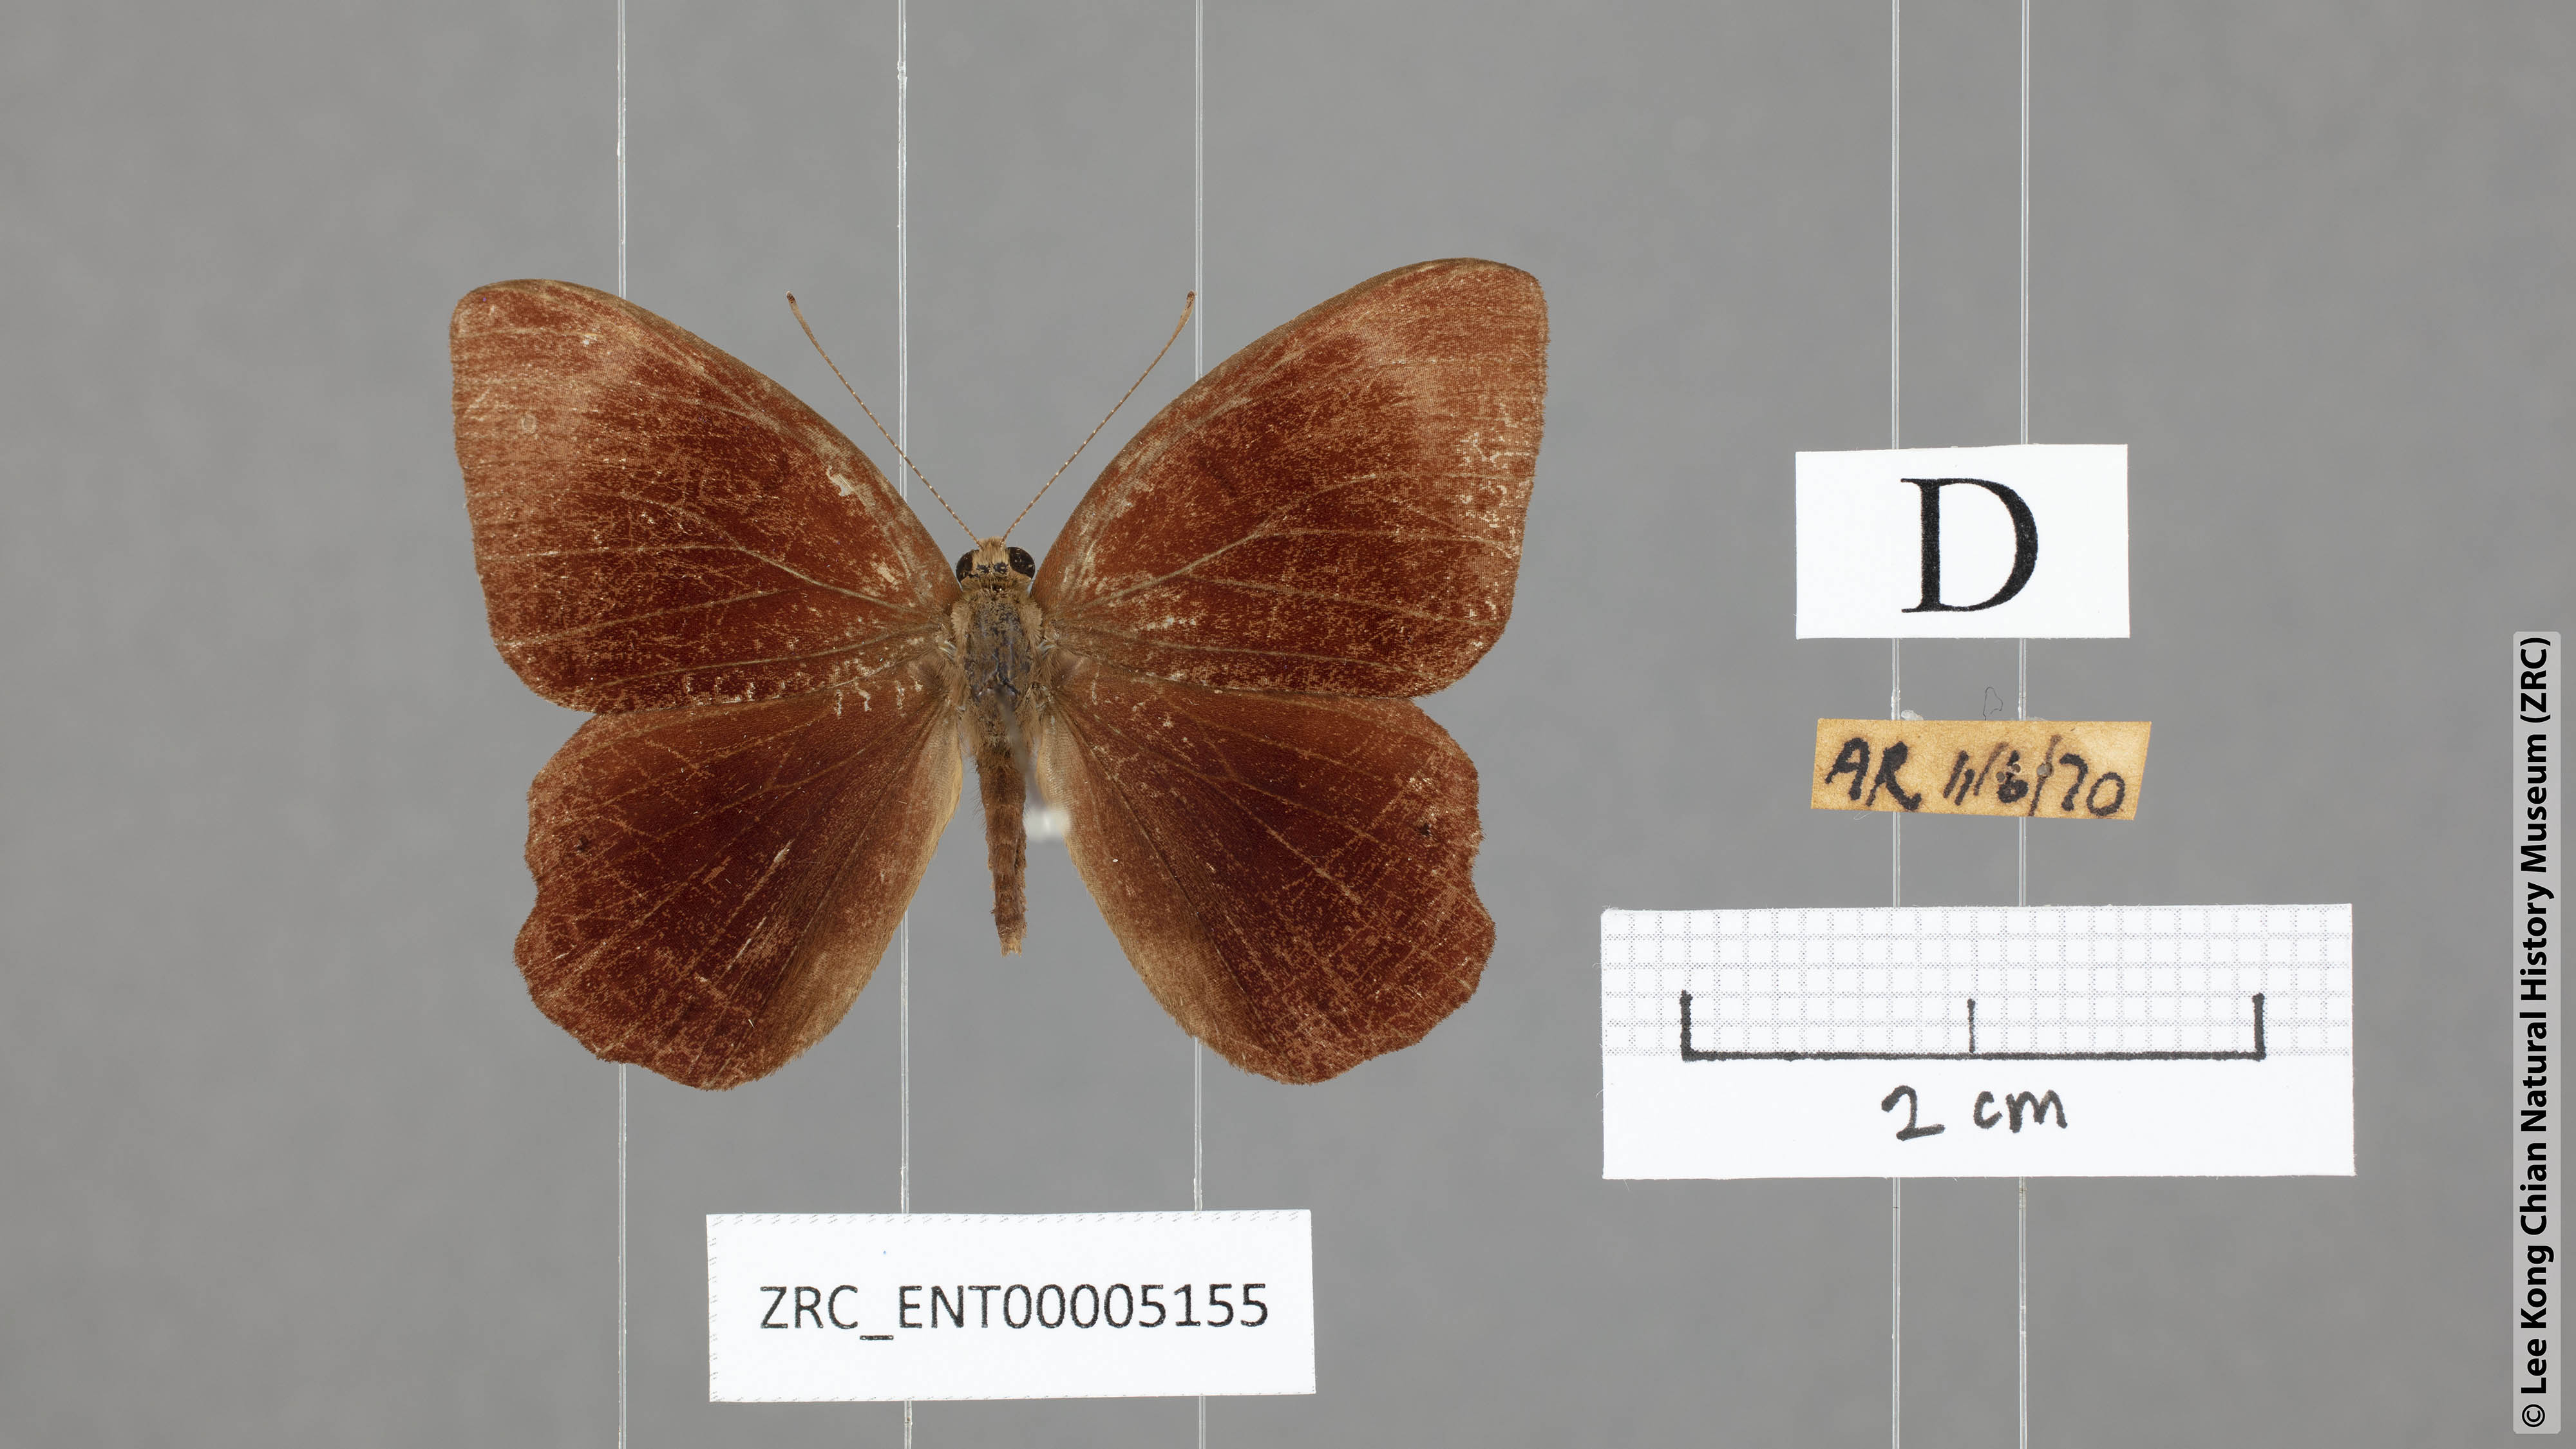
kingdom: Animalia
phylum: Arthropoda
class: Insecta
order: Lepidoptera
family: Lycaenidae
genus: Abisara
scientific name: Abisara geza
